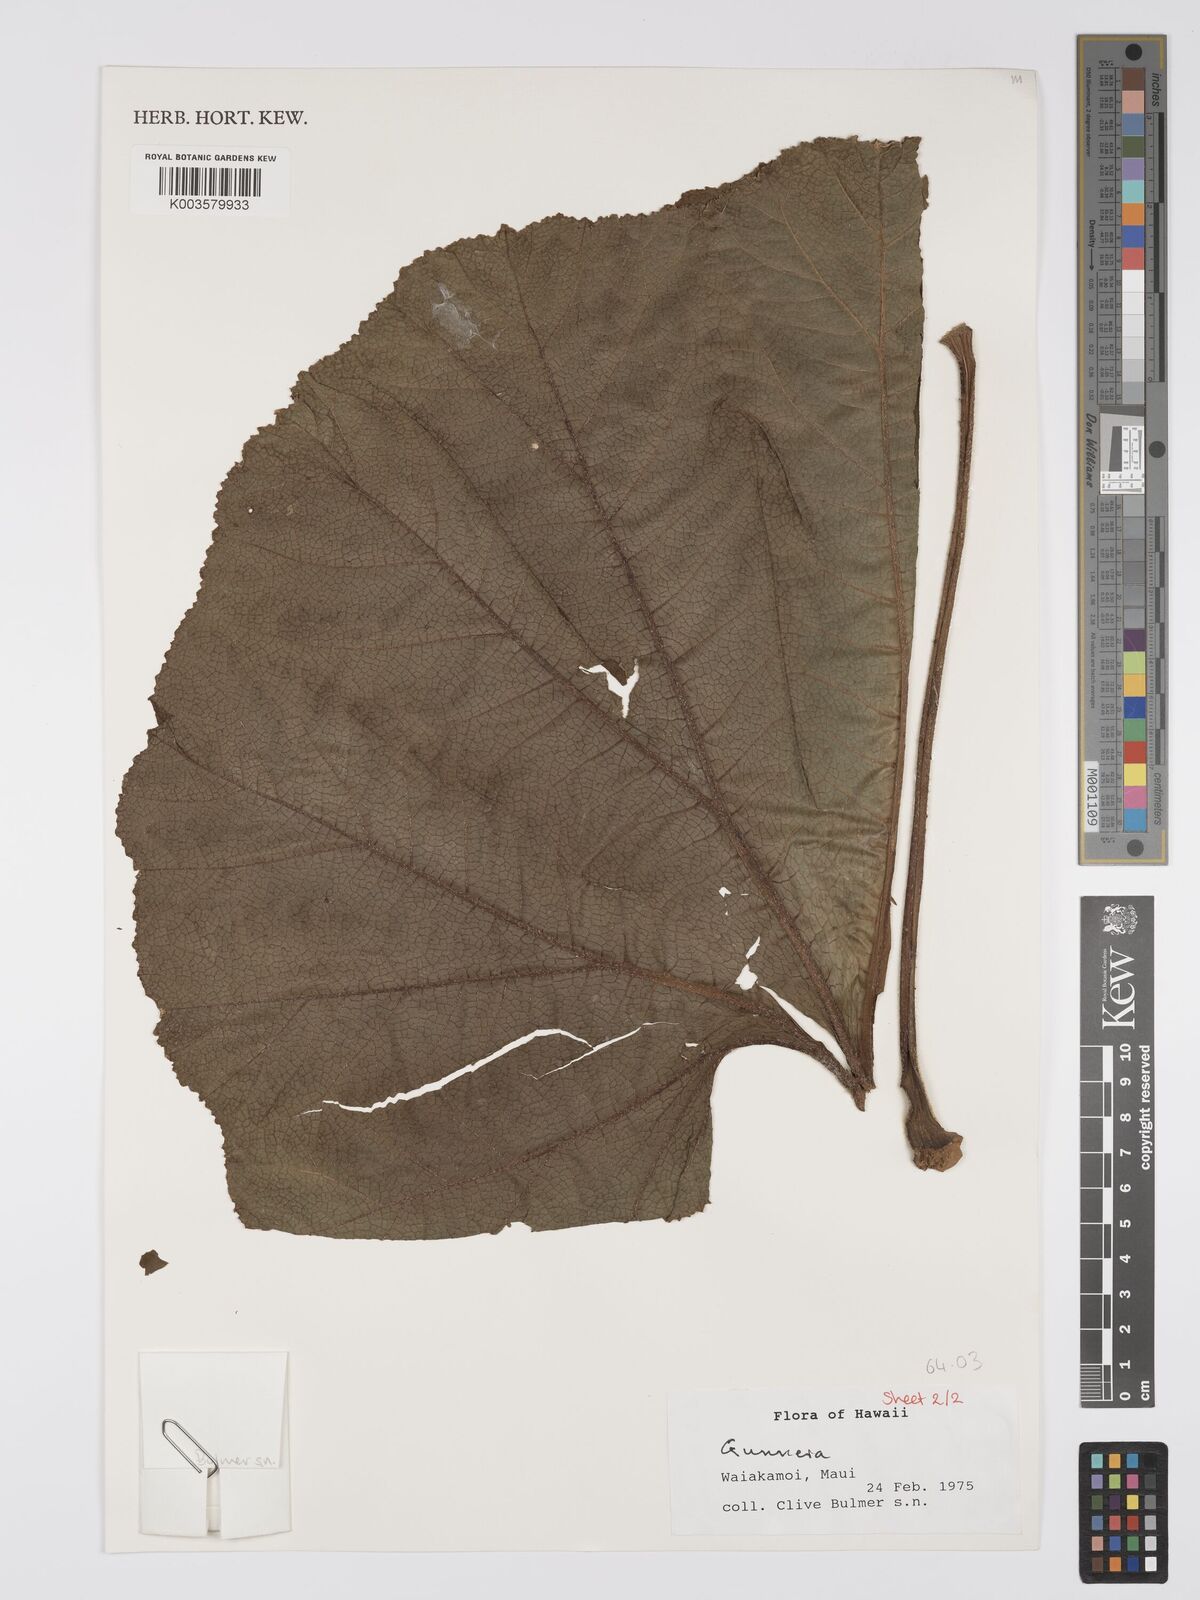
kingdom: Plantae
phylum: Tracheophyta
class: Magnoliopsida
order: Gunnerales
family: Gunneraceae
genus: Gunnera
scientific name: Gunnera
